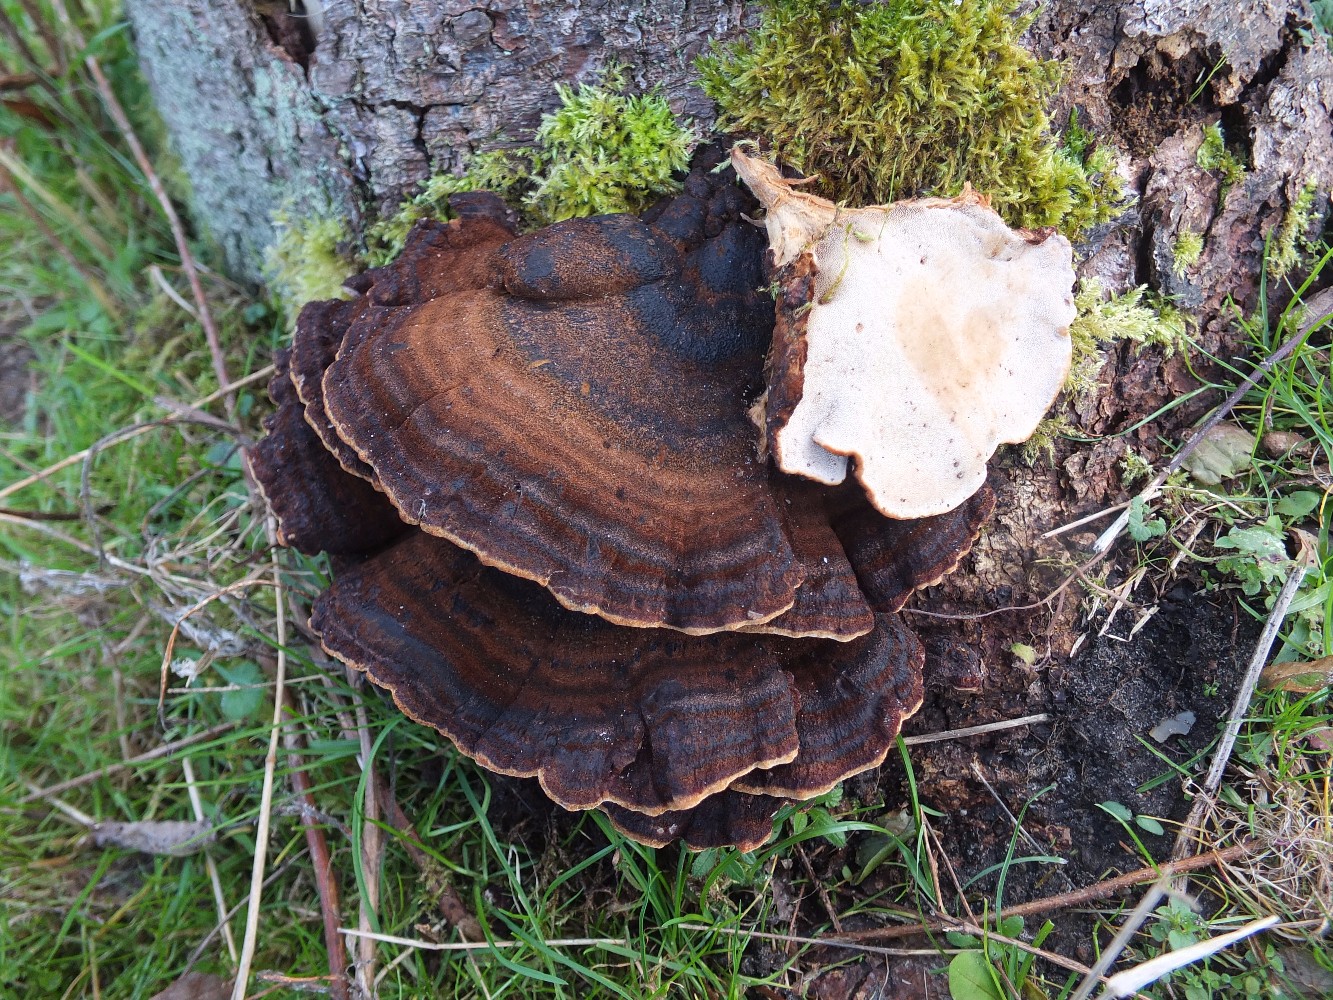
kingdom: Fungi
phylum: Basidiomycota
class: Agaricomycetes
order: Polyporales
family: Ischnodermataceae
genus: Ischnoderma
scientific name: Ischnoderma benzoinum
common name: gran-tjæreporesvamp
